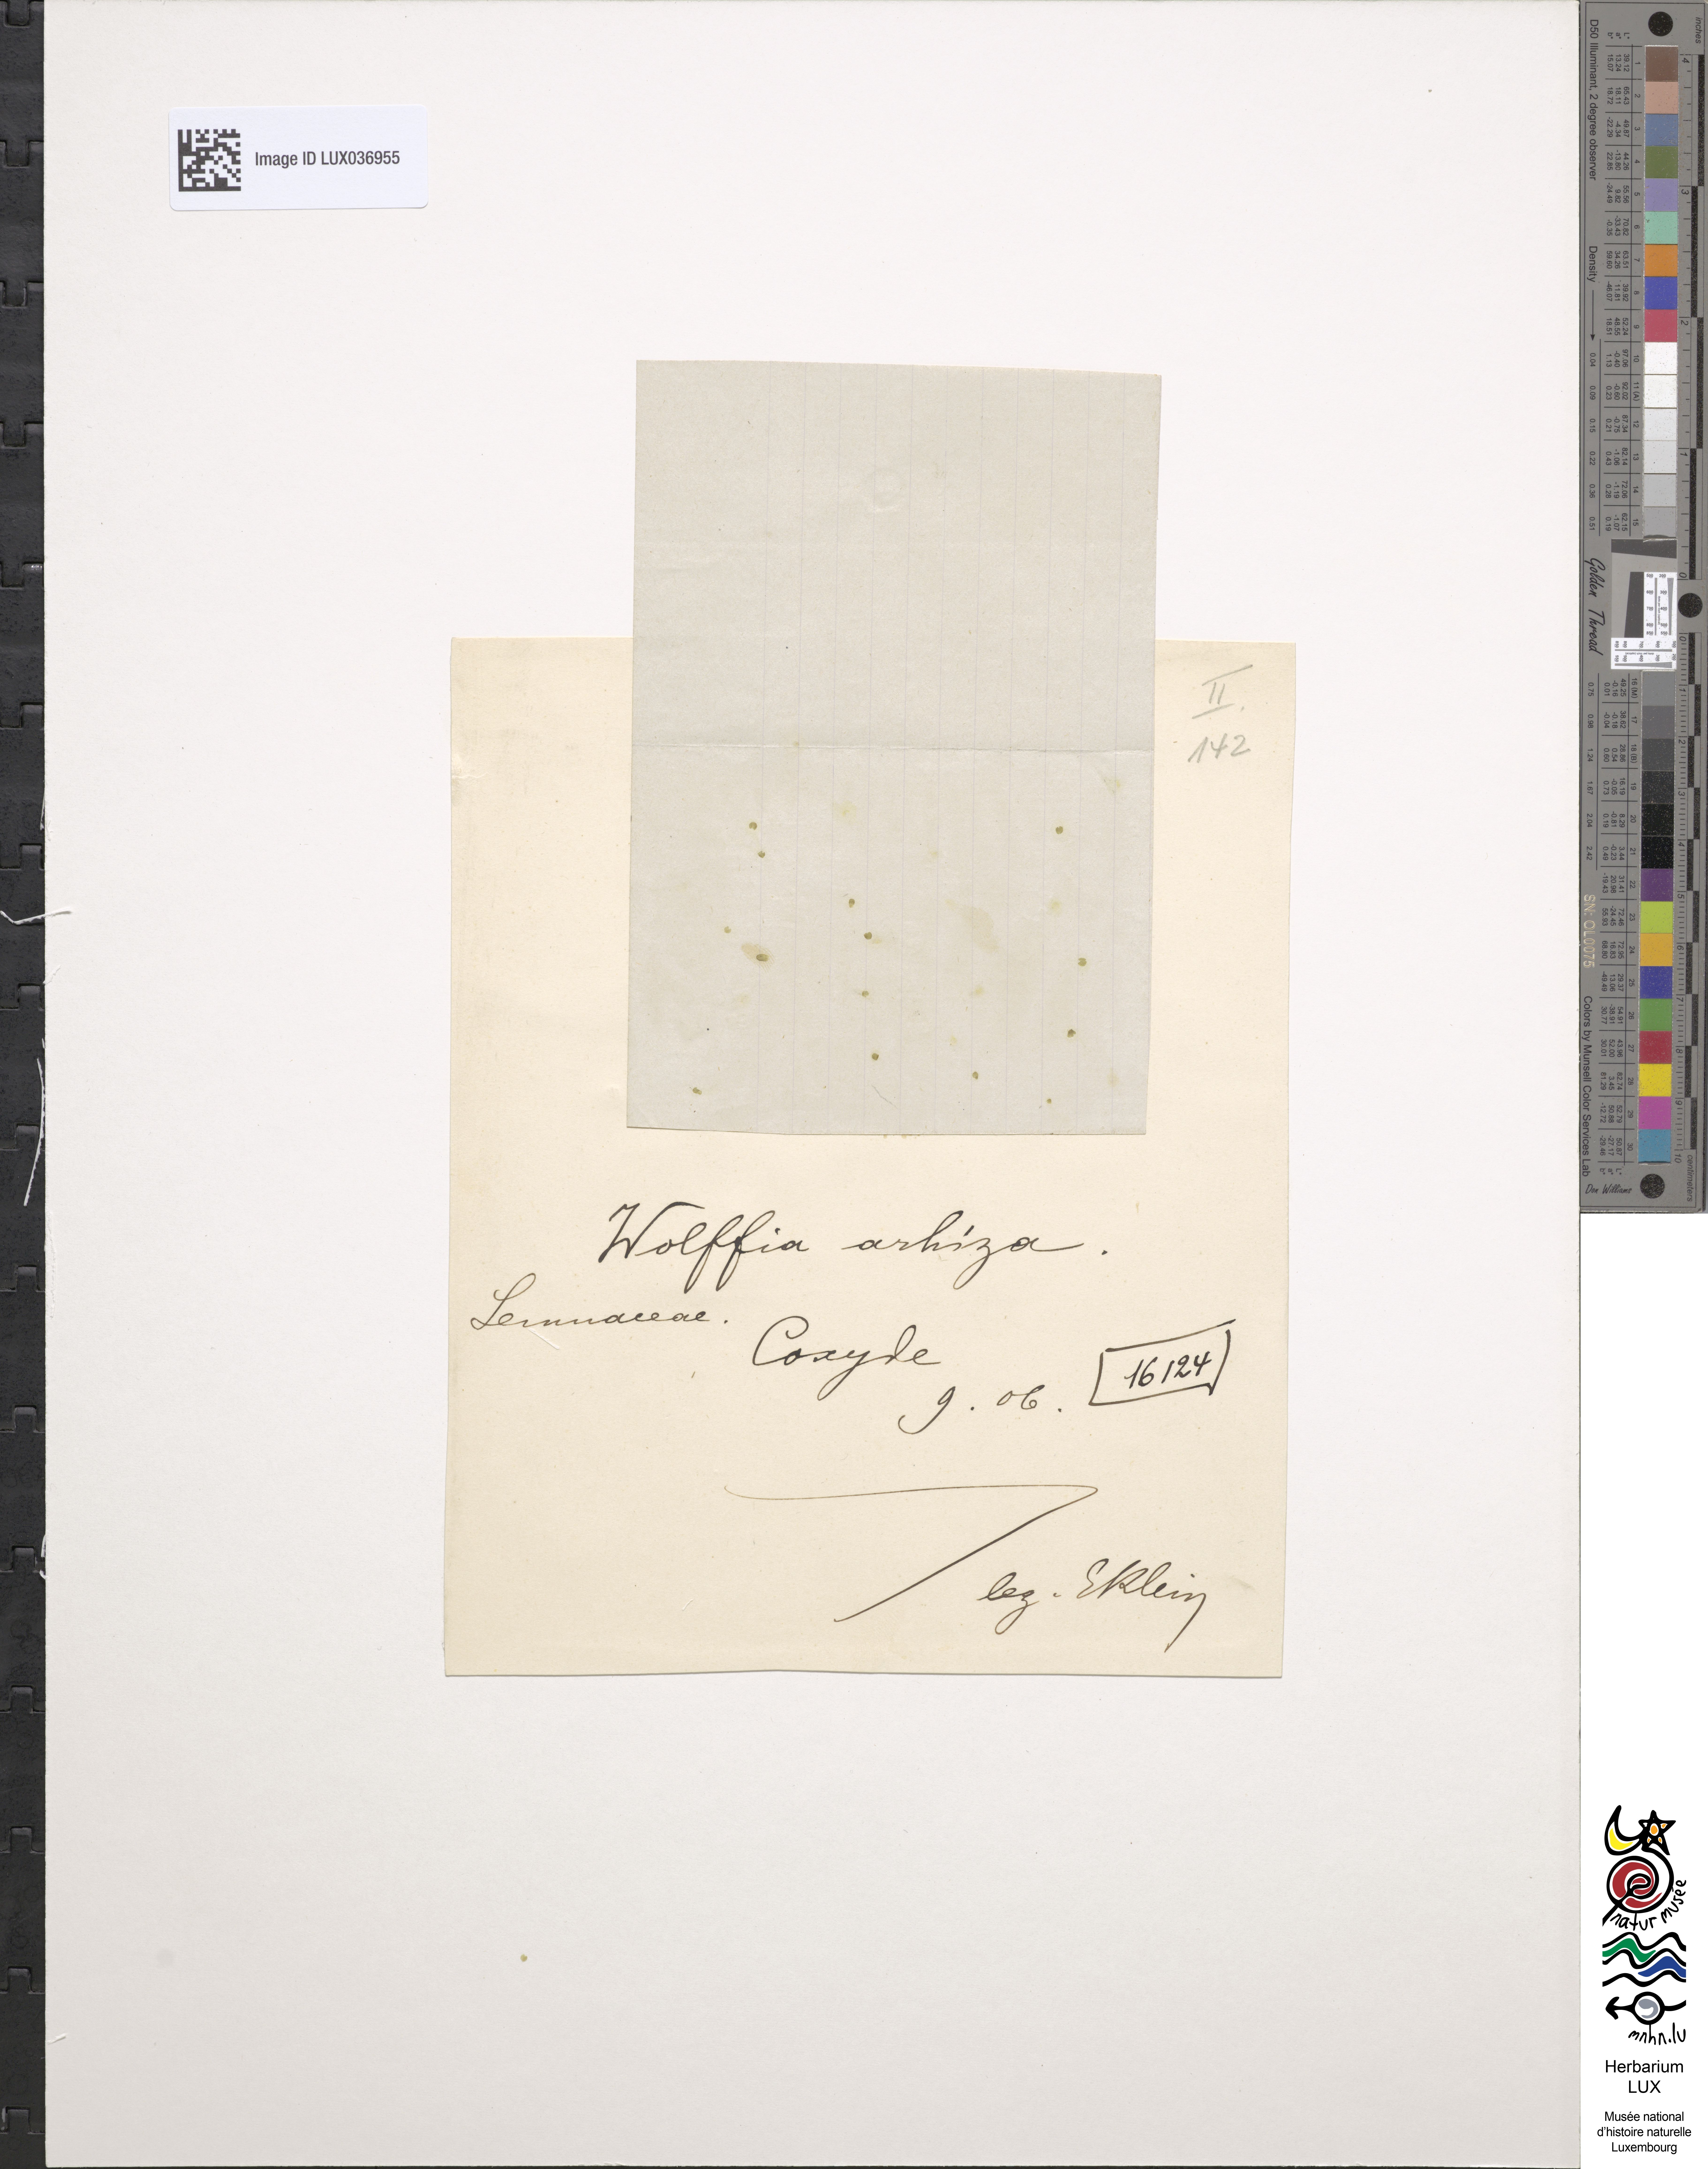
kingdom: Plantae
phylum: Tracheophyta
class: Liliopsida
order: Alismatales
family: Araceae
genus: Wolffia
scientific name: Wolffia arrhiza
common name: Rootless duckweed
